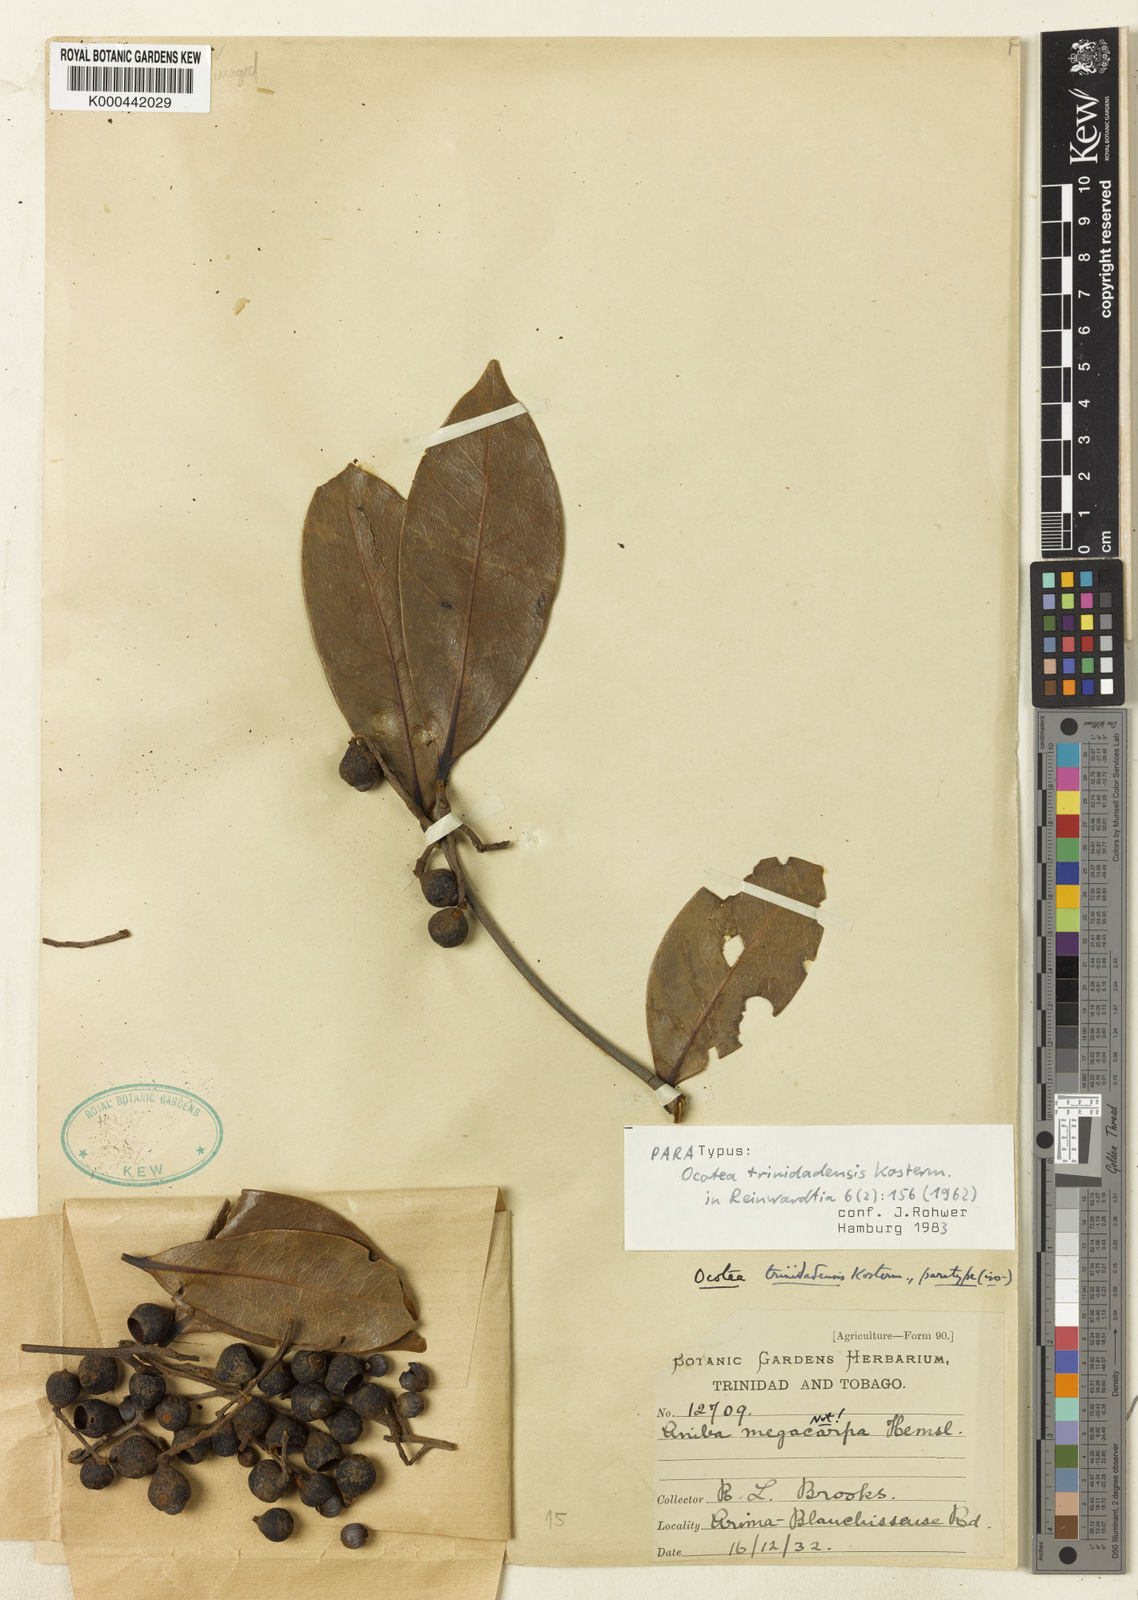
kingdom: Plantae
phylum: Tracheophyta
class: Magnoliopsida
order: Laurales
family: Lauraceae
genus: Ocotea
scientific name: Ocotea trinidadensis
